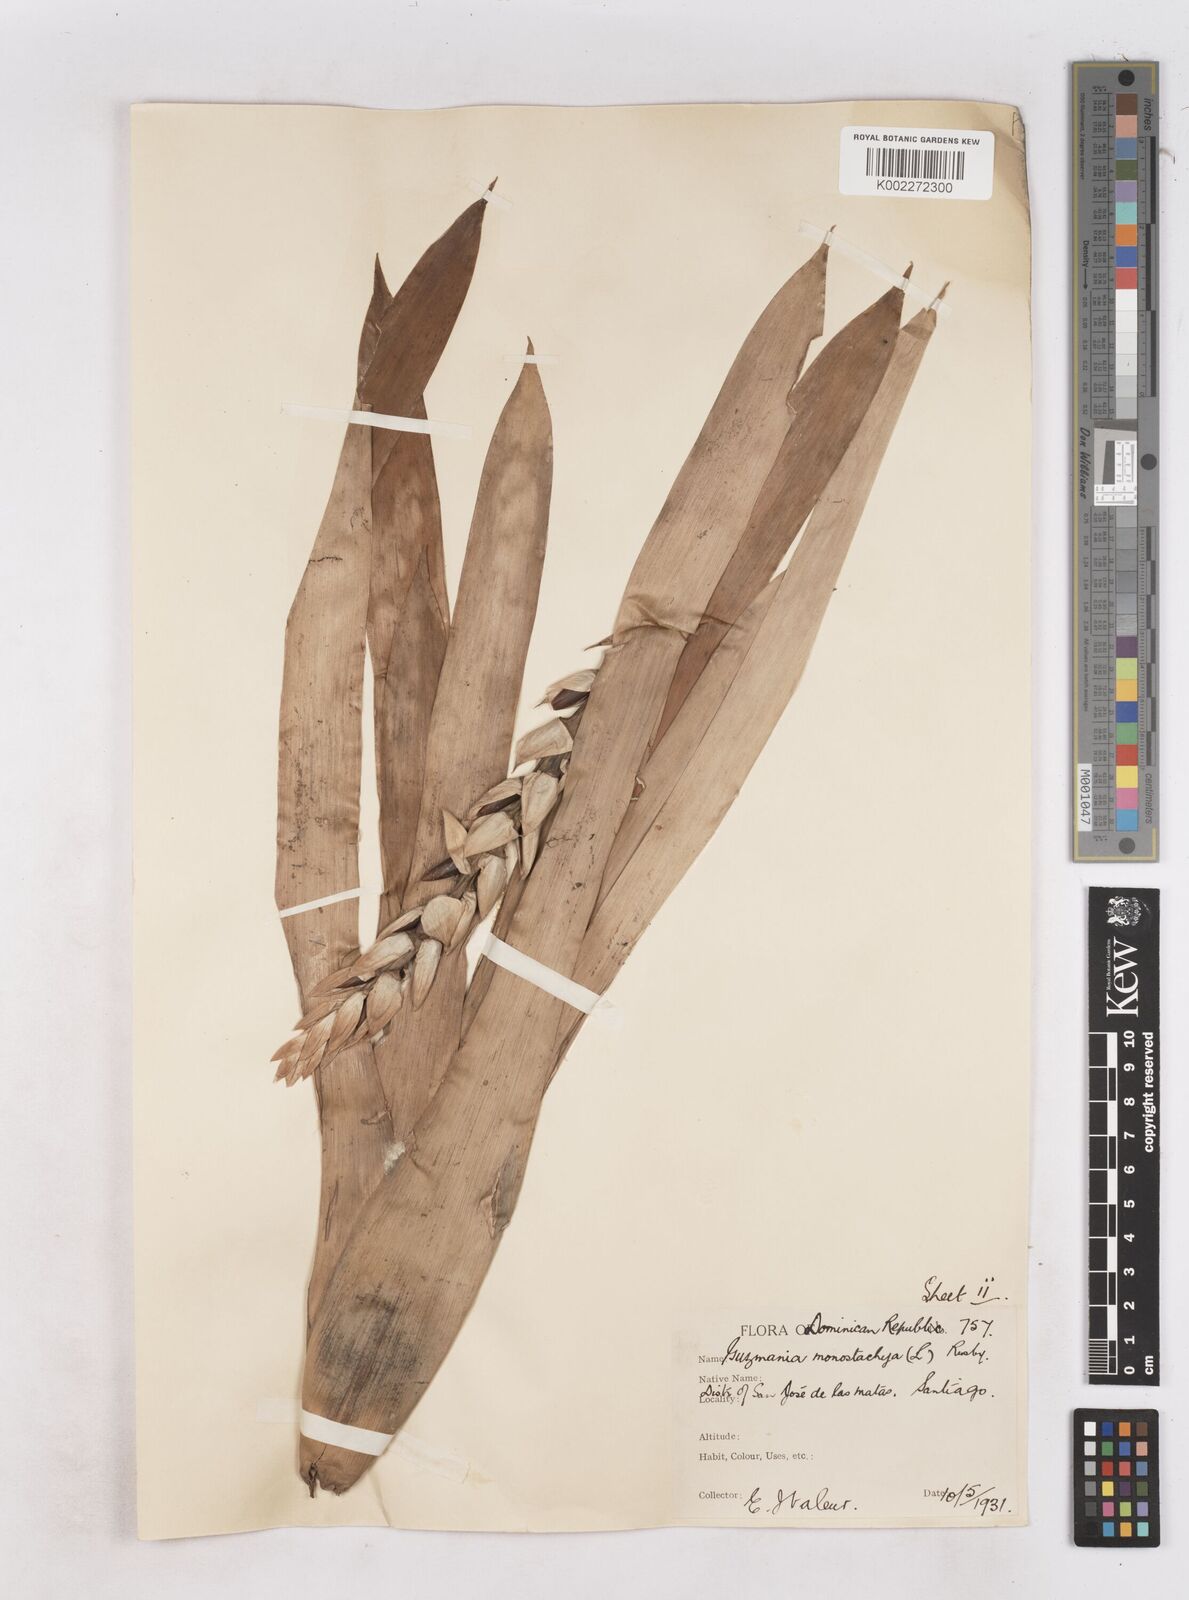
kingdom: Plantae
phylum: Tracheophyta
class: Liliopsida
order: Poales
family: Bromeliaceae
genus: Guzmania
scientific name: Guzmania monostachia
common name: West indian tufted airplant
